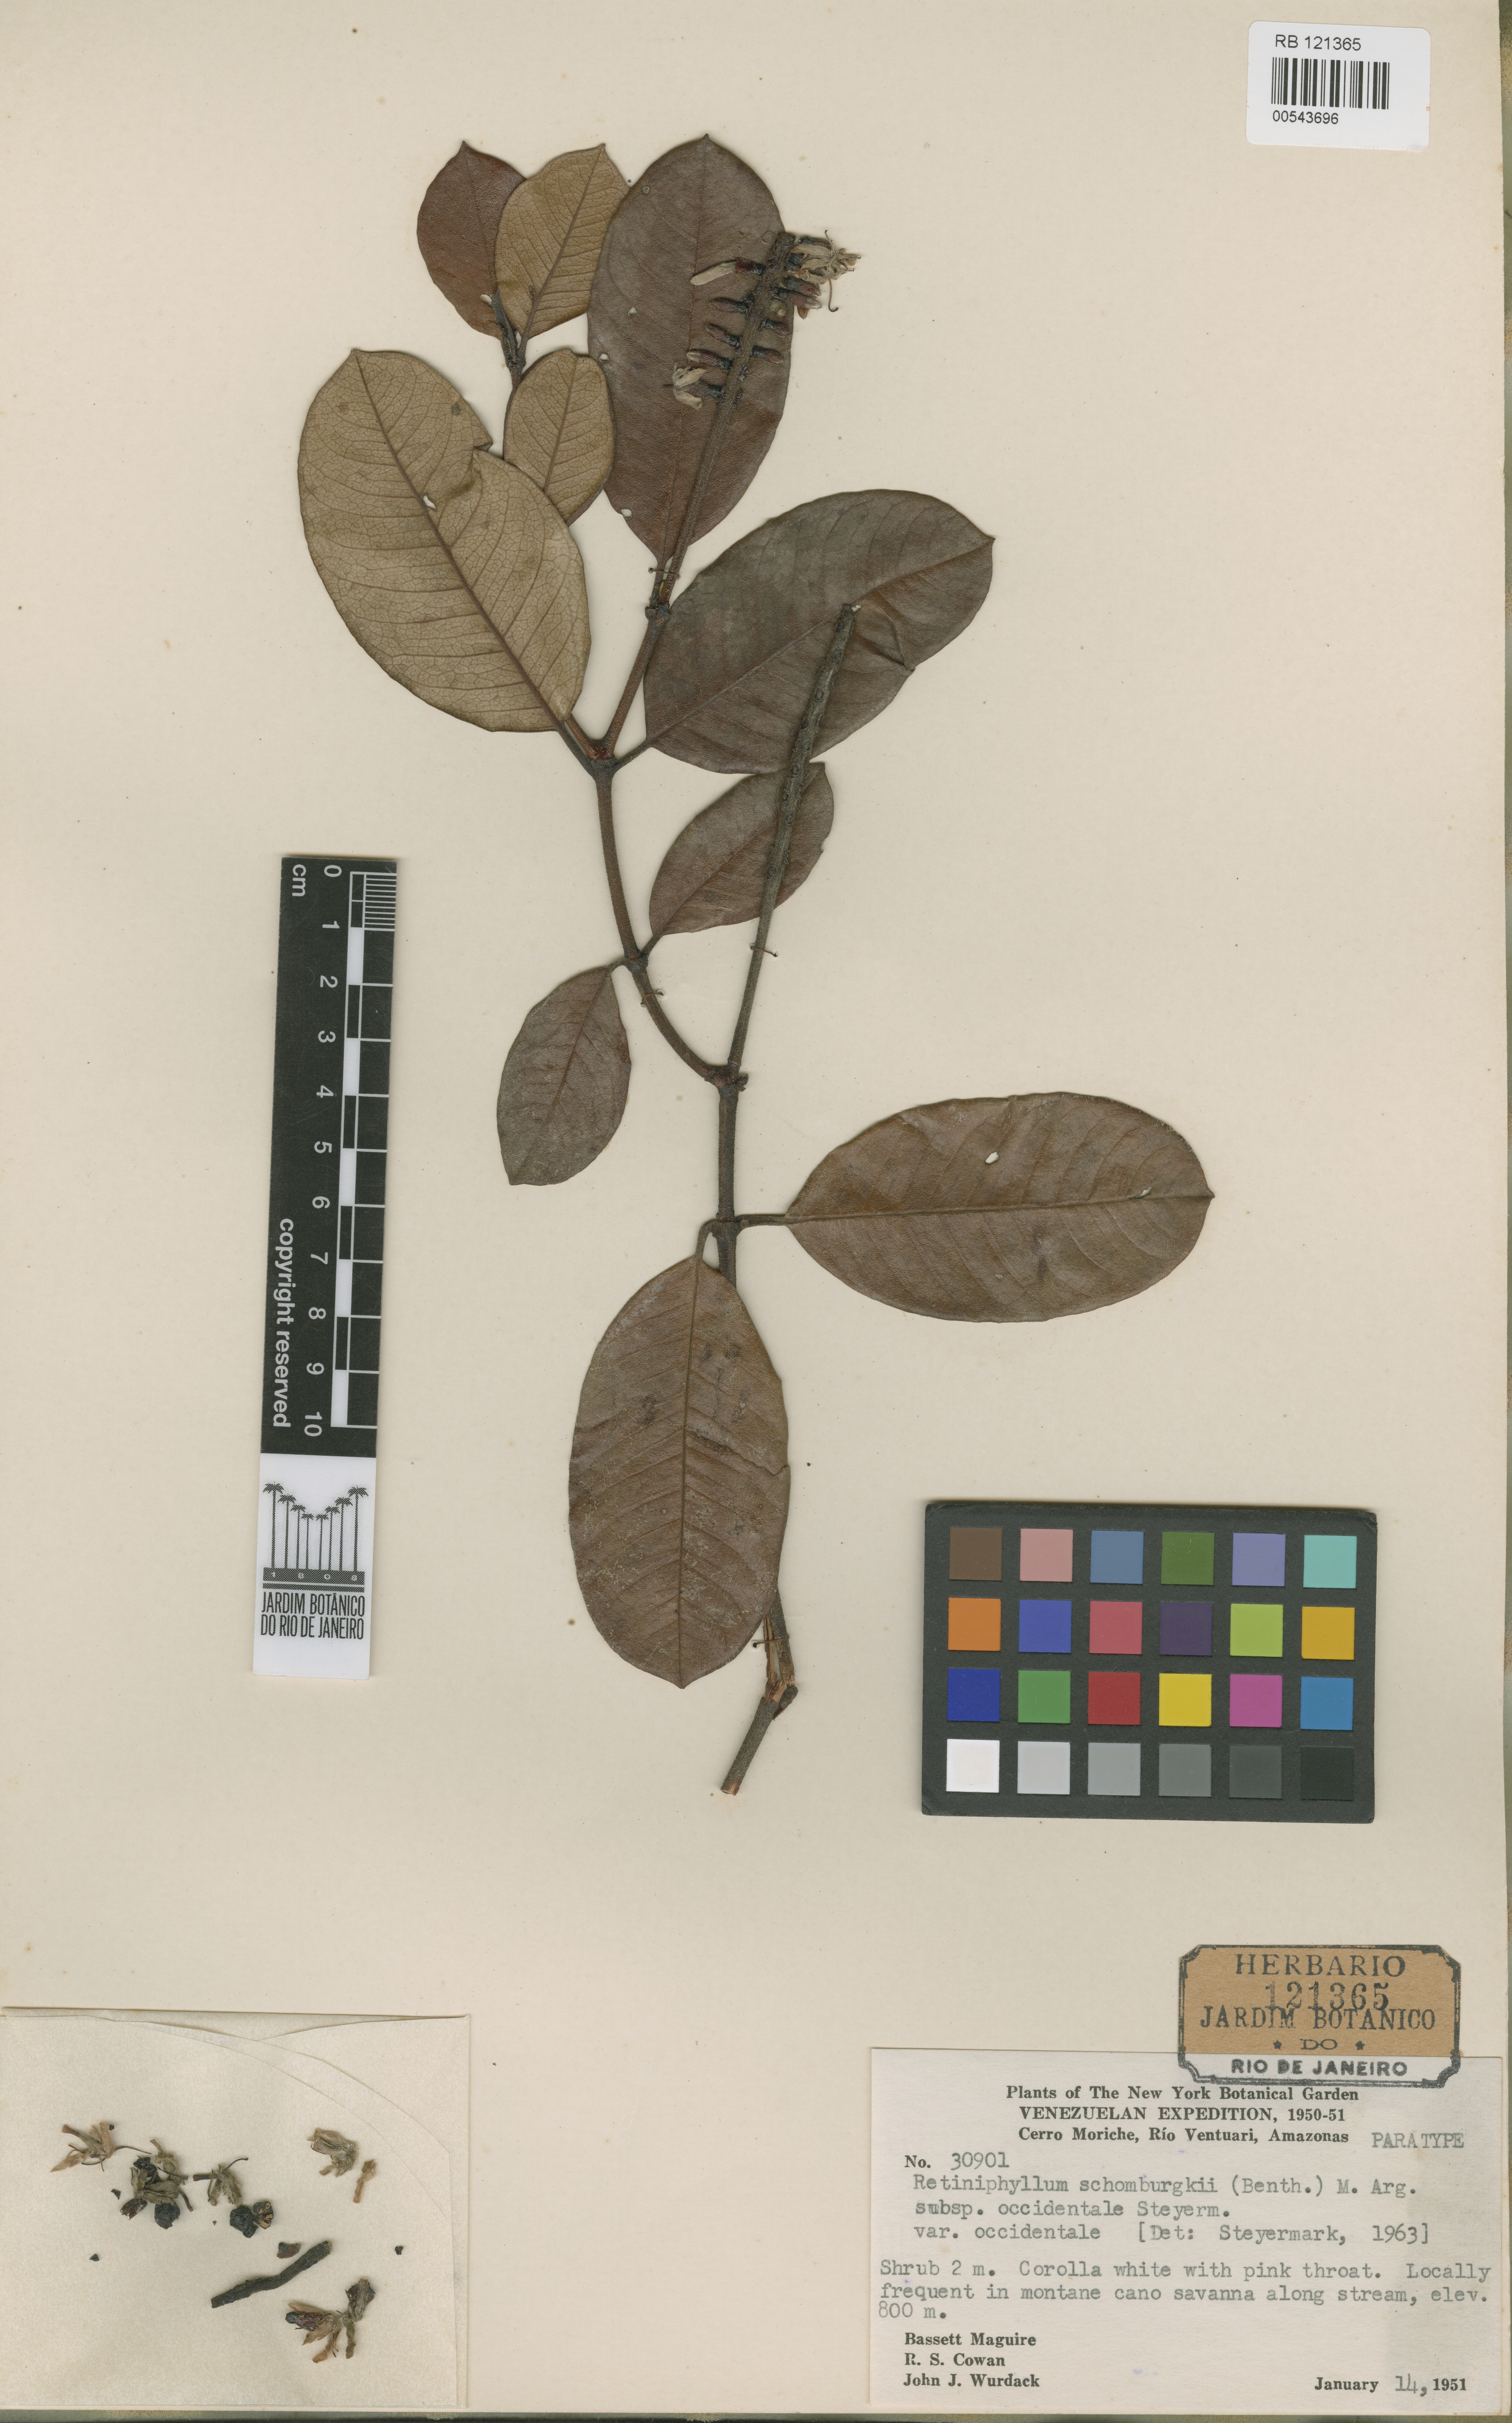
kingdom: Plantae
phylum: Tracheophyta
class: Magnoliopsida
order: Gentianales
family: Rubiaceae
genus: Retiniphyllum
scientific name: Retiniphyllum schomburgkii
